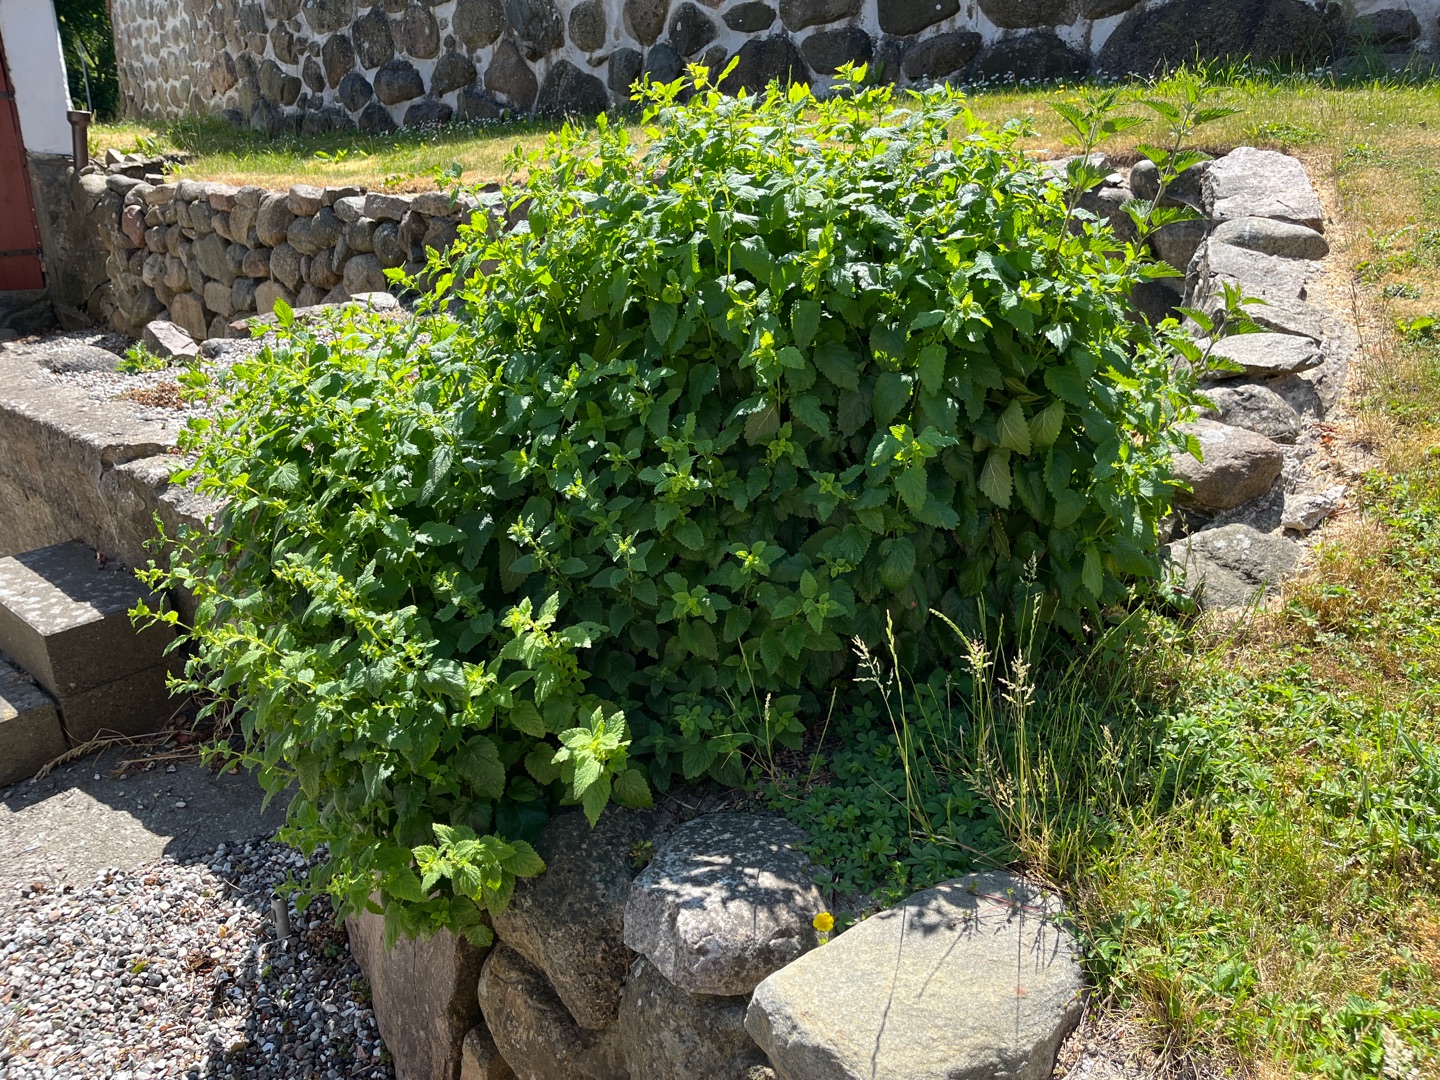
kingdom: Plantae
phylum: Tracheophyta
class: Magnoliopsida
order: Lamiales
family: Lamiaceae
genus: Melissa
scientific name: Melissa officinalis
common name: Citronmelisse
